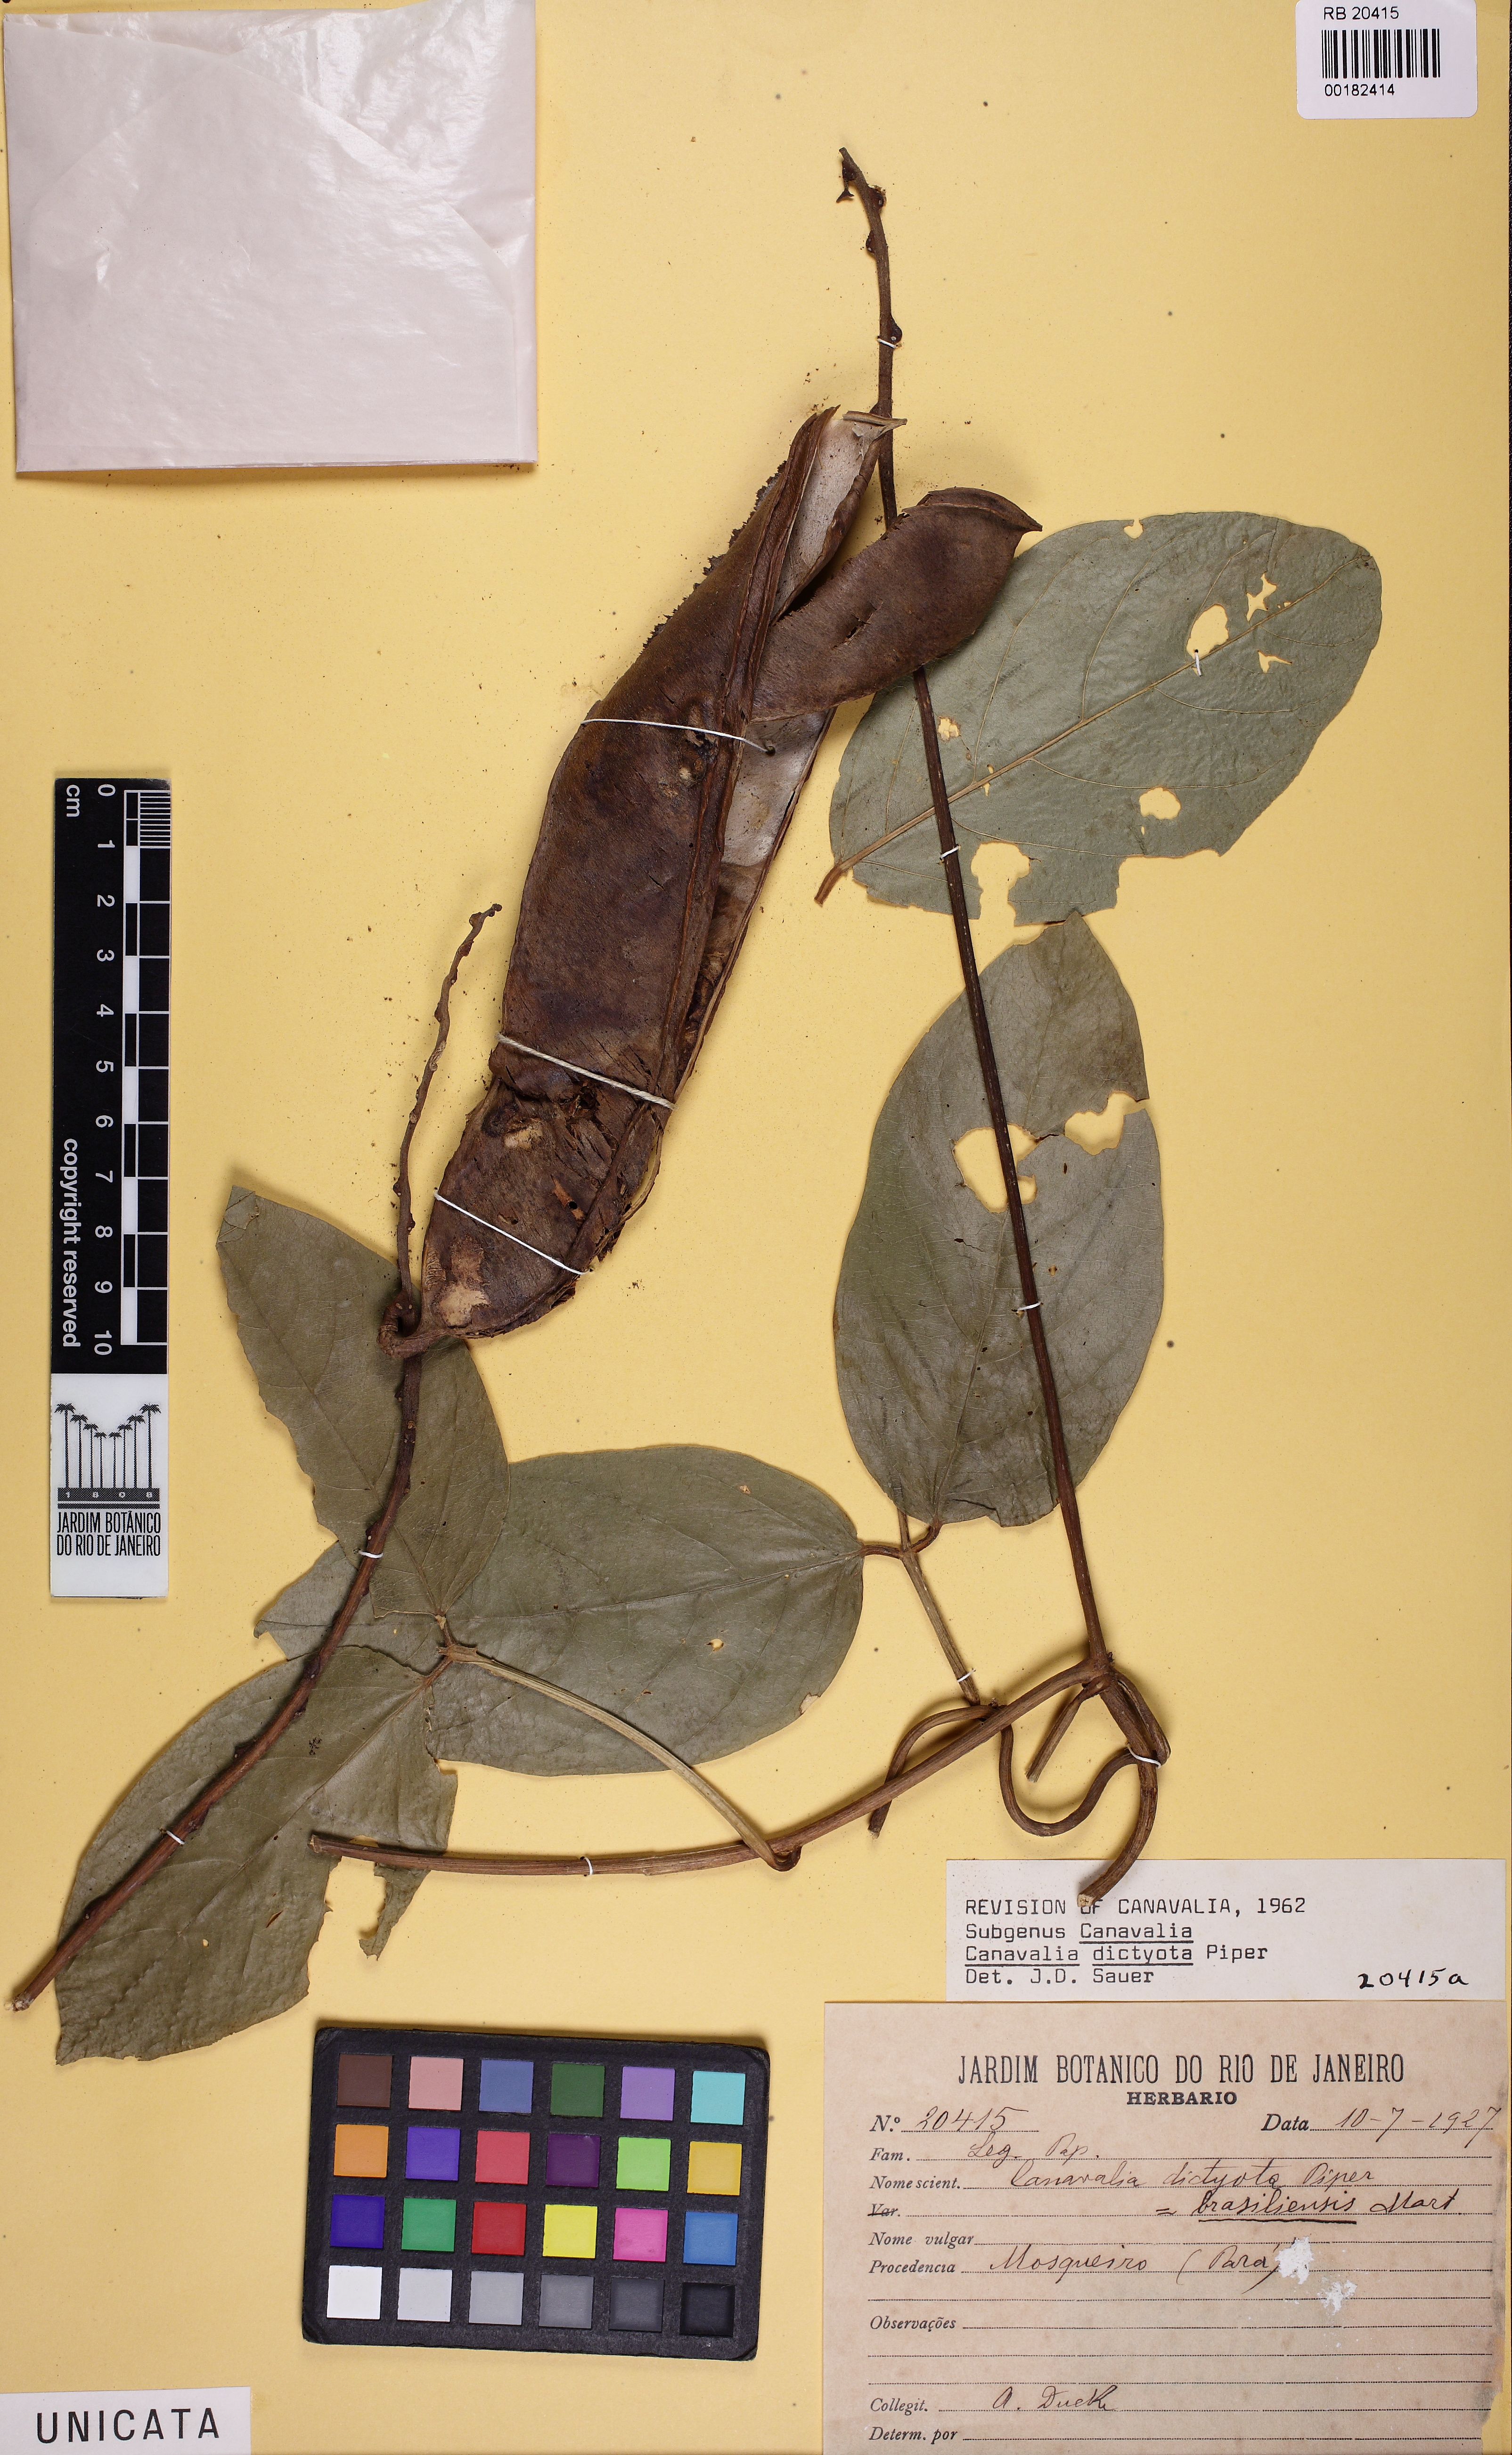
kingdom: Plantae
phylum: Tracheophyta
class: Magnoliopsida
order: Fabales
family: Fabaceae
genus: Canavalia
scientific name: Canavalia brasiliensis
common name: Barbicou-bean
